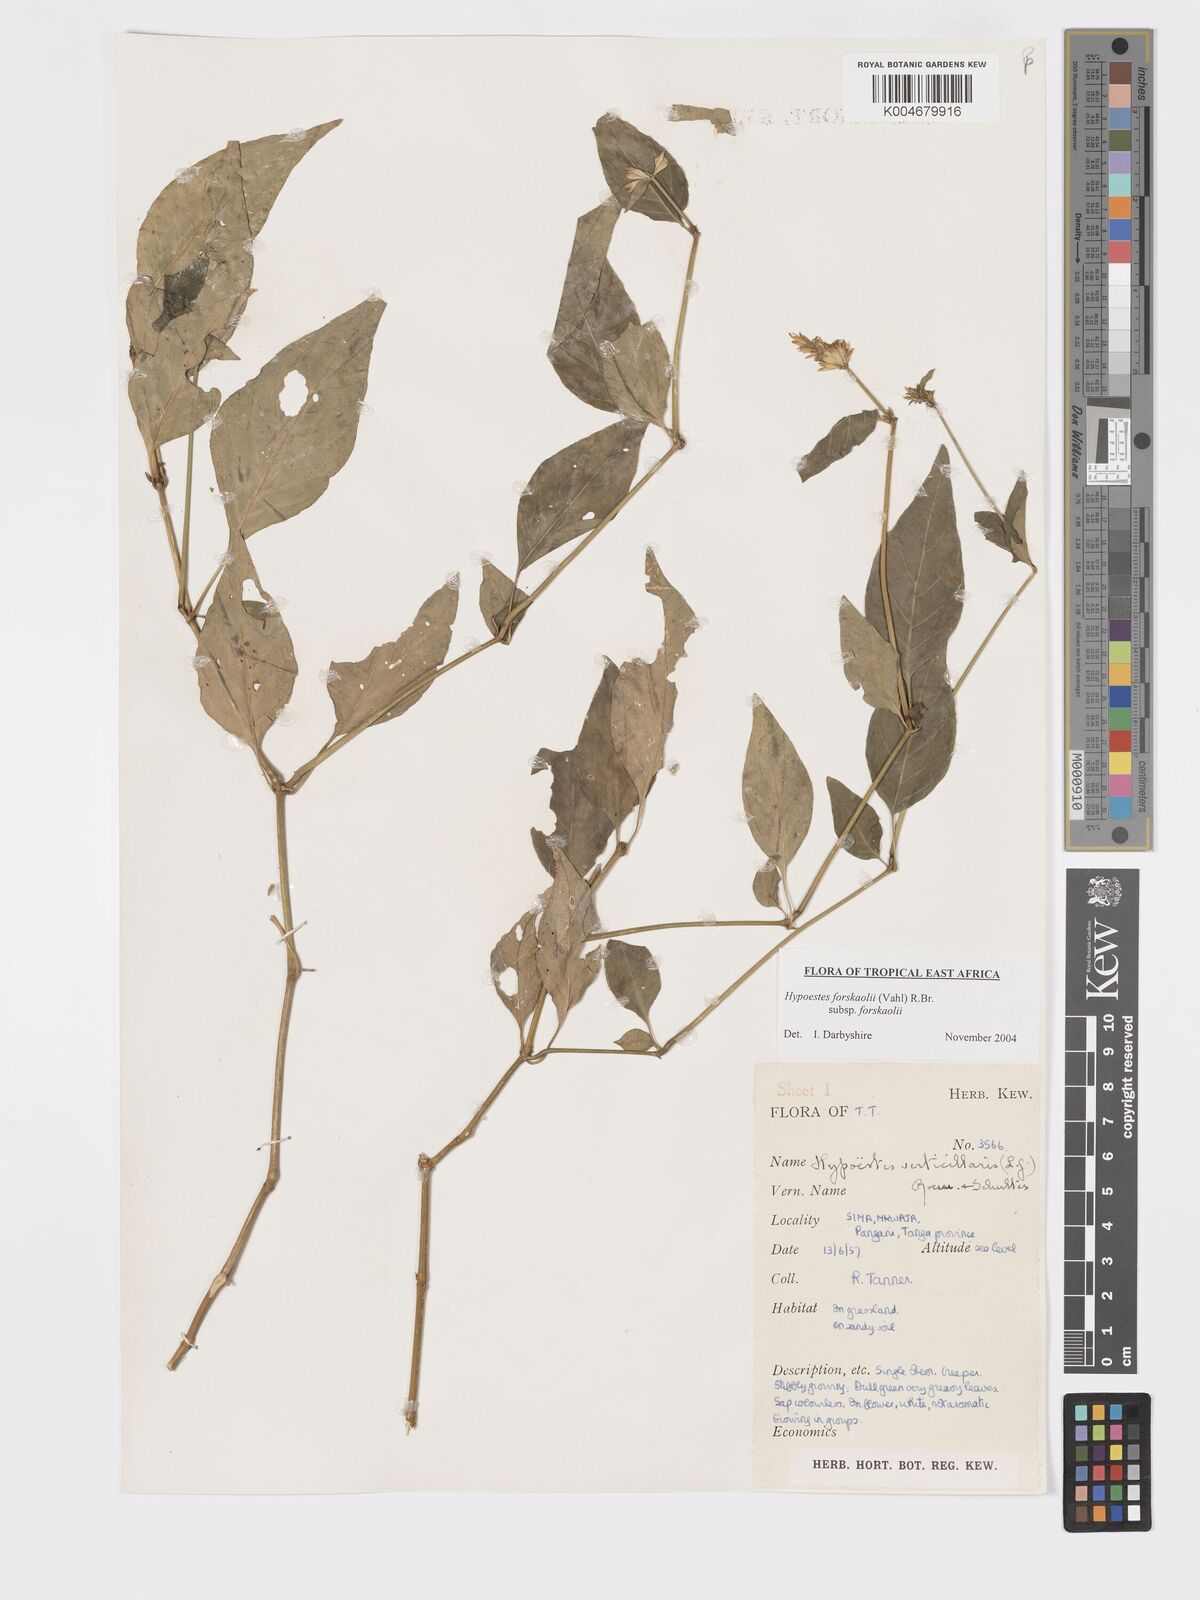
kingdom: Plantae
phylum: Tracheophyta
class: Magnoliopsida
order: Lamiales
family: Acanthaceae
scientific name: Acanthaceae
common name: Acanthaceae
